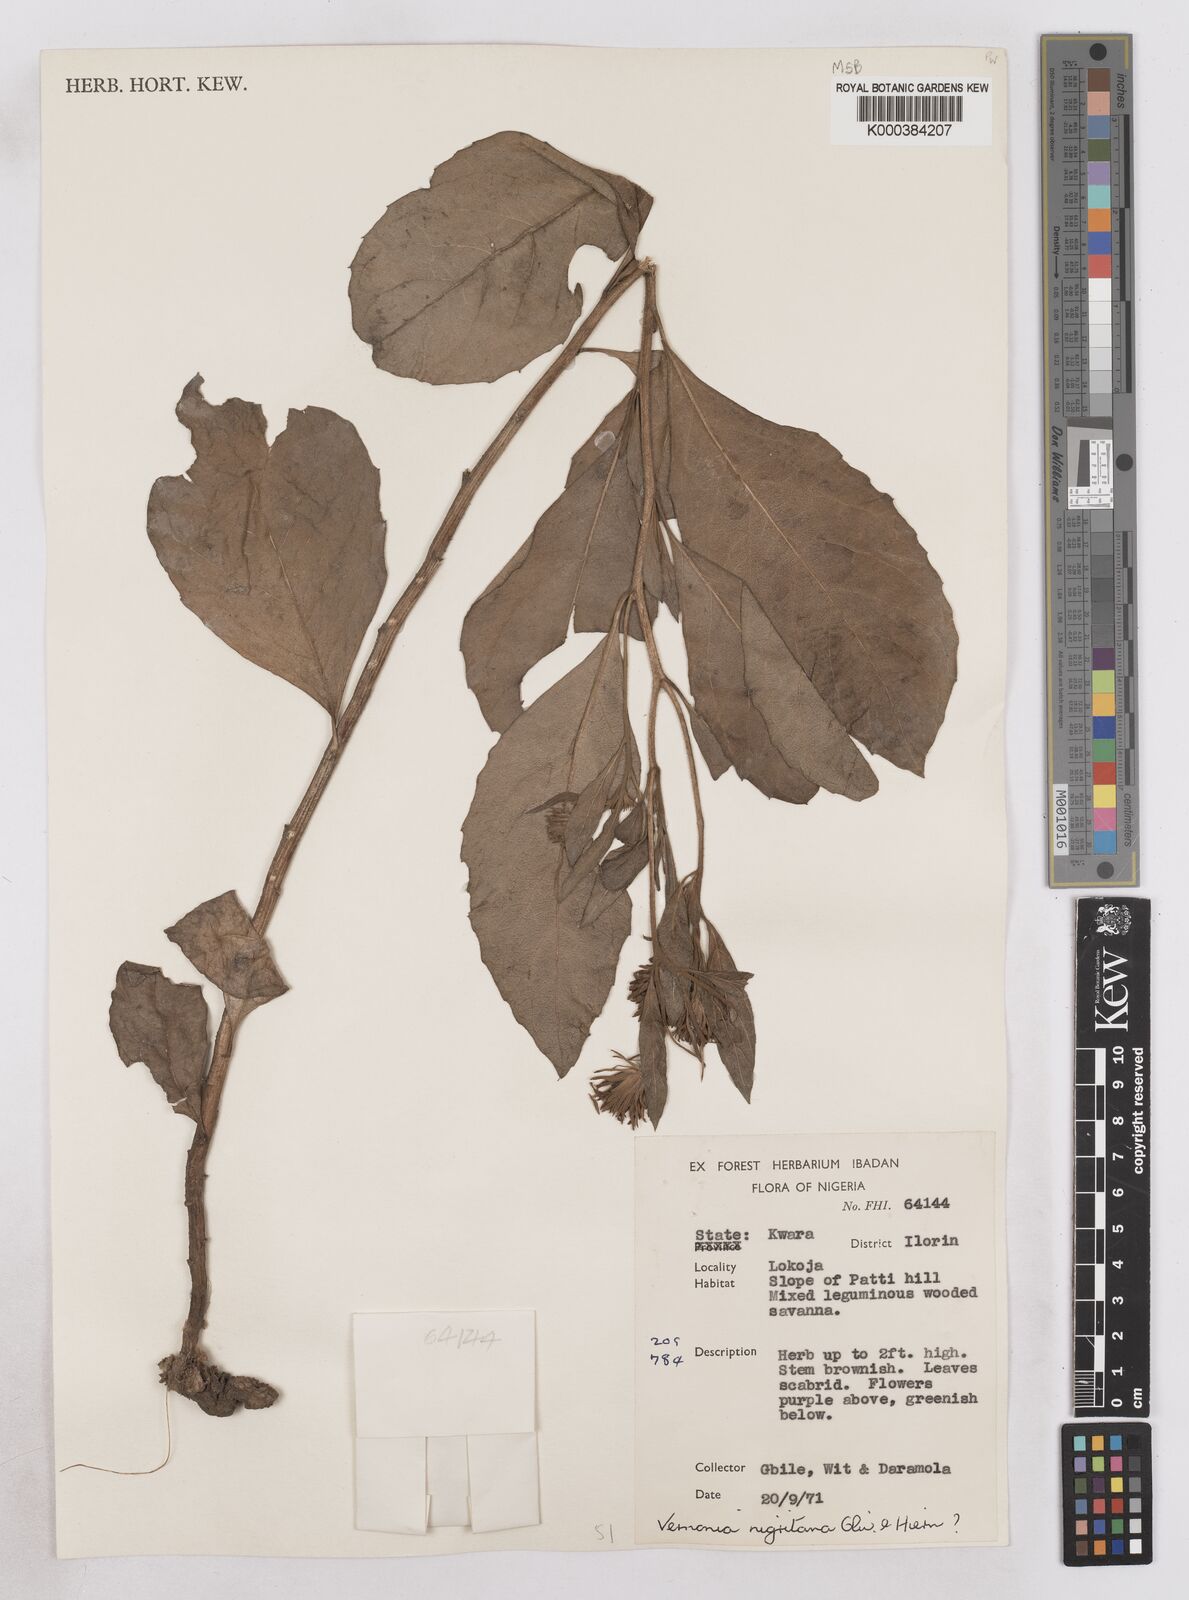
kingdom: Plantae
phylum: Tracheophyta
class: Magnoliopsida
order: Asterales
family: Asteraceae
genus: Linzia
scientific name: Linzia nigritiana
